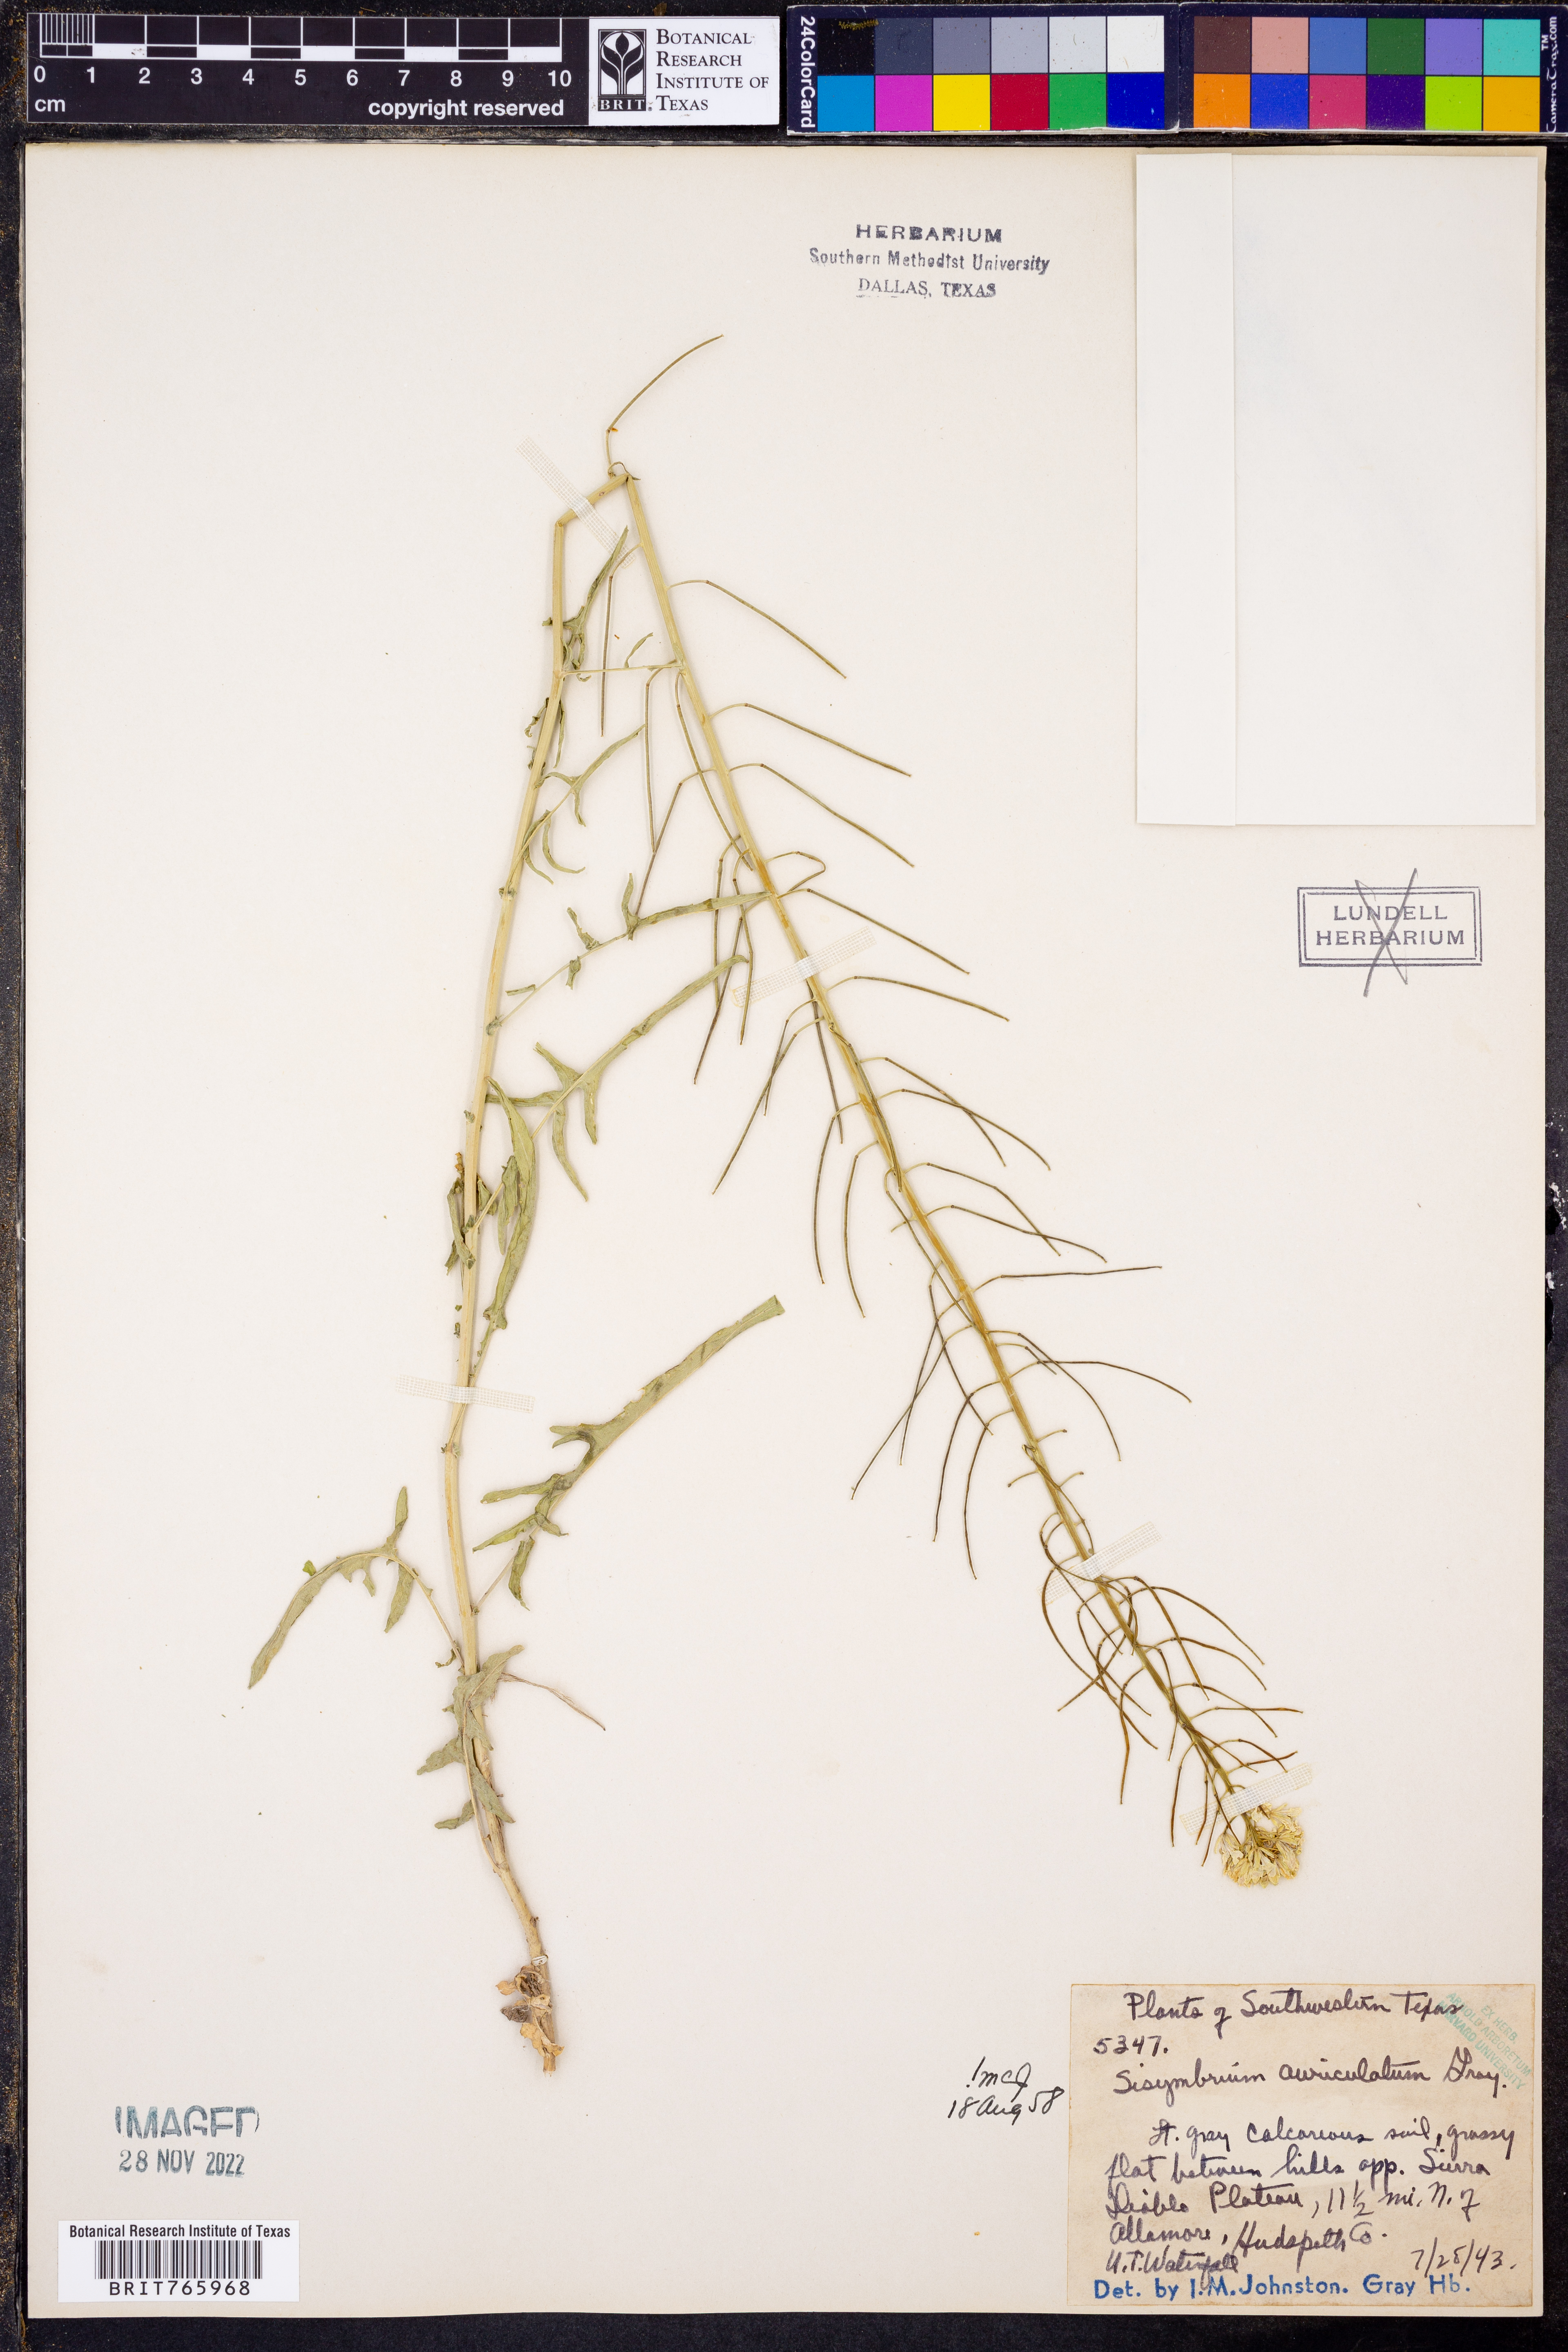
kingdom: Plantae
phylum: Tracheophyta
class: Magnoliopsida
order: Brassicales
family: Brassicaceae
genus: Cardamine
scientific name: Cardamine komarovii
